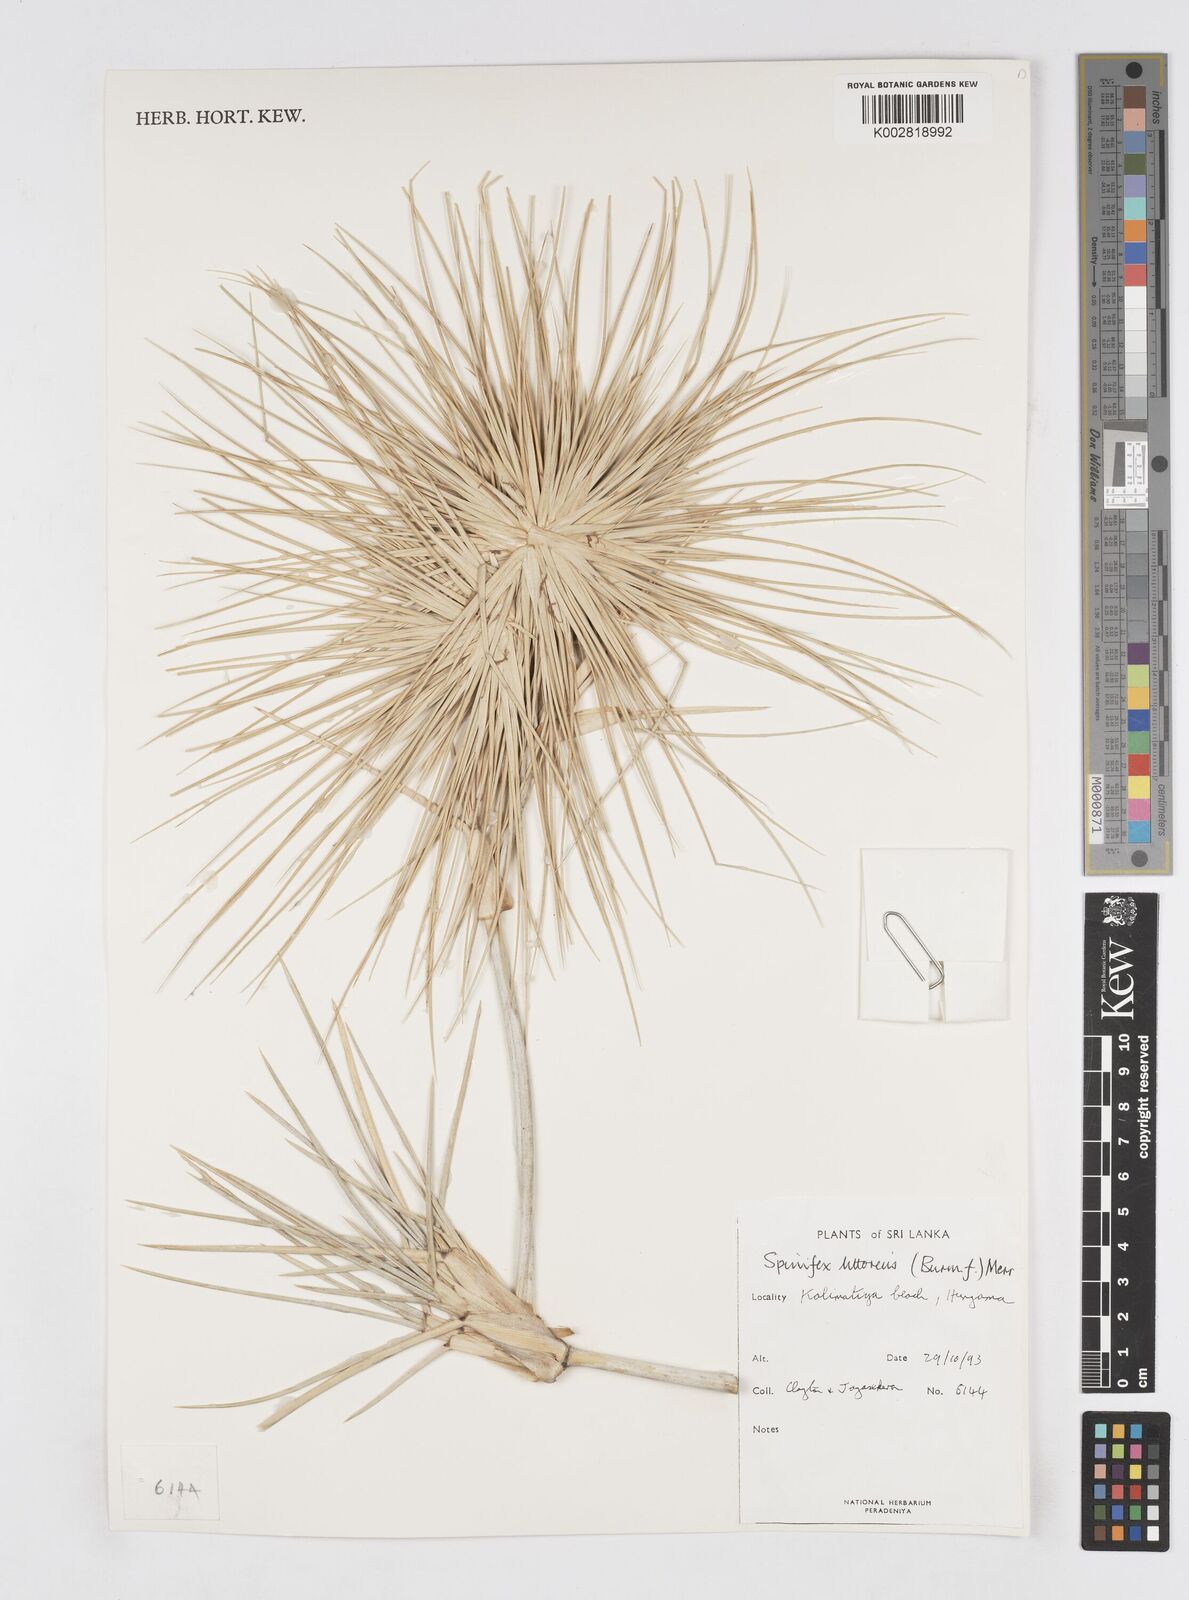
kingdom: Plantae
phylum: Tracheophyta
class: Liliopsida
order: Poales
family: Poaceae
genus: Spinifex
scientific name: Spinifex littoreus
